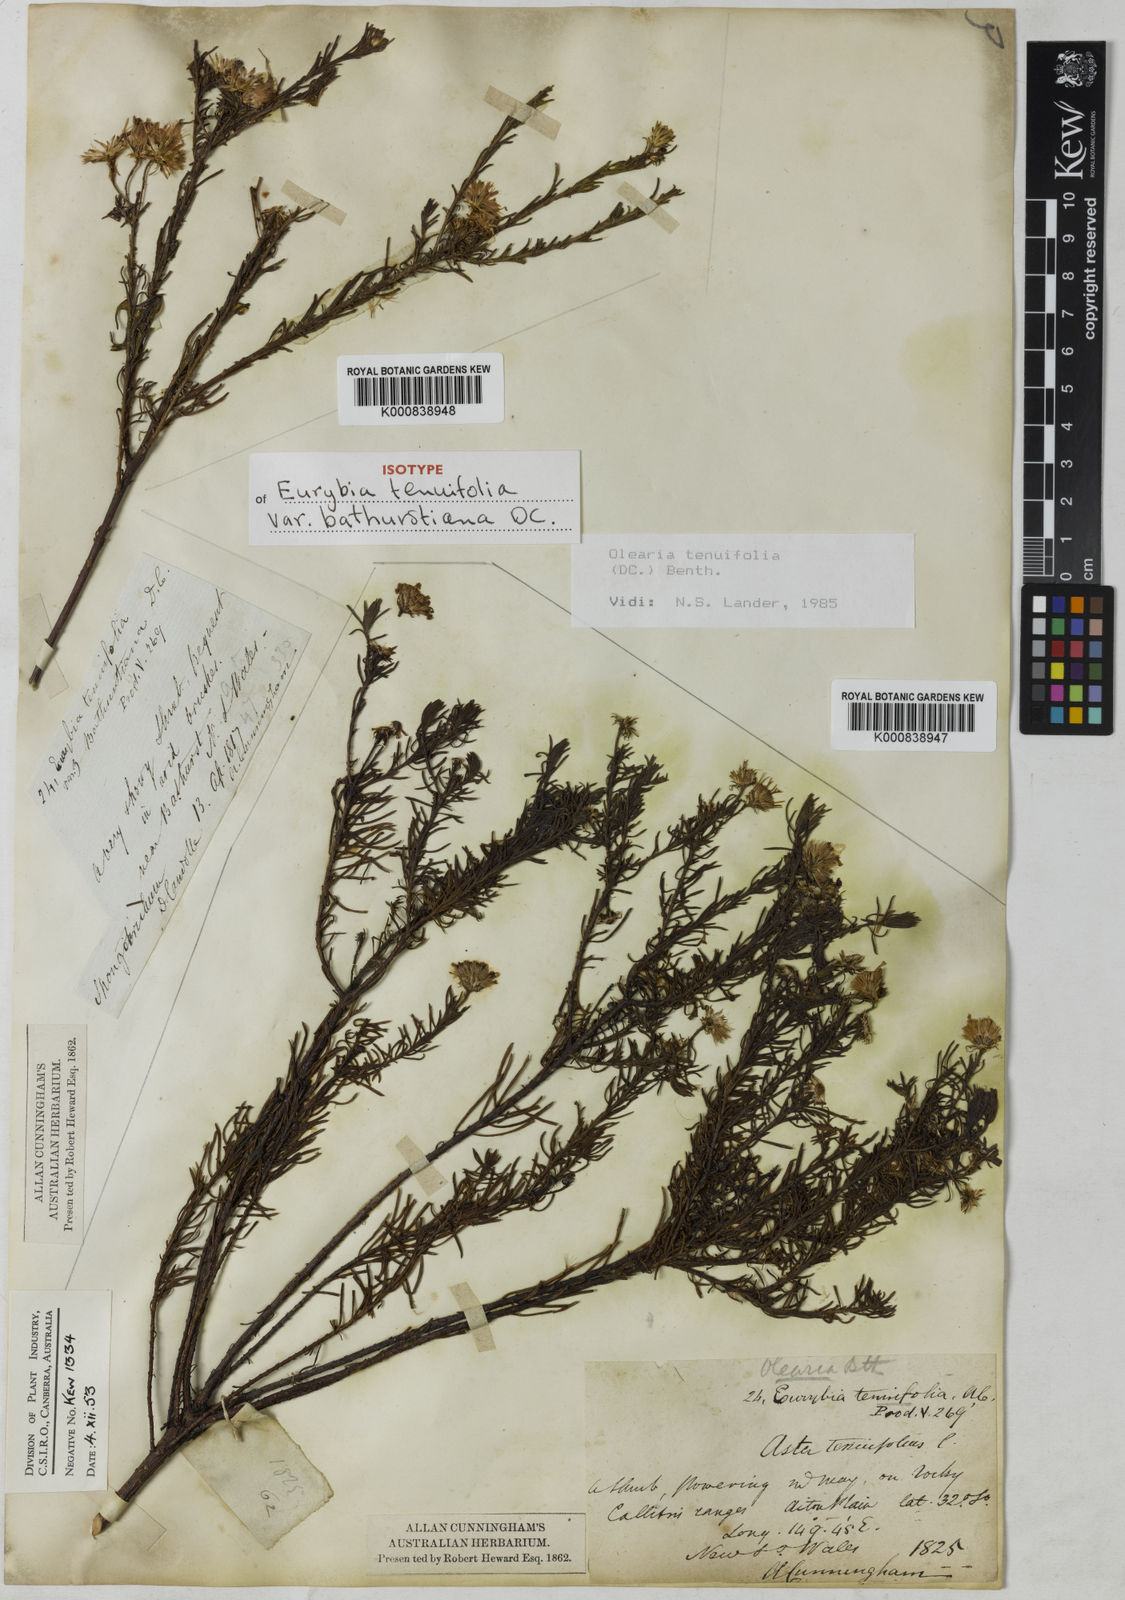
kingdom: Plantae
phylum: Tracheophyta
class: Magnoliopsida
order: Asterales
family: Asteraceae
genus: Olearia
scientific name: Olearia tenuifolia
